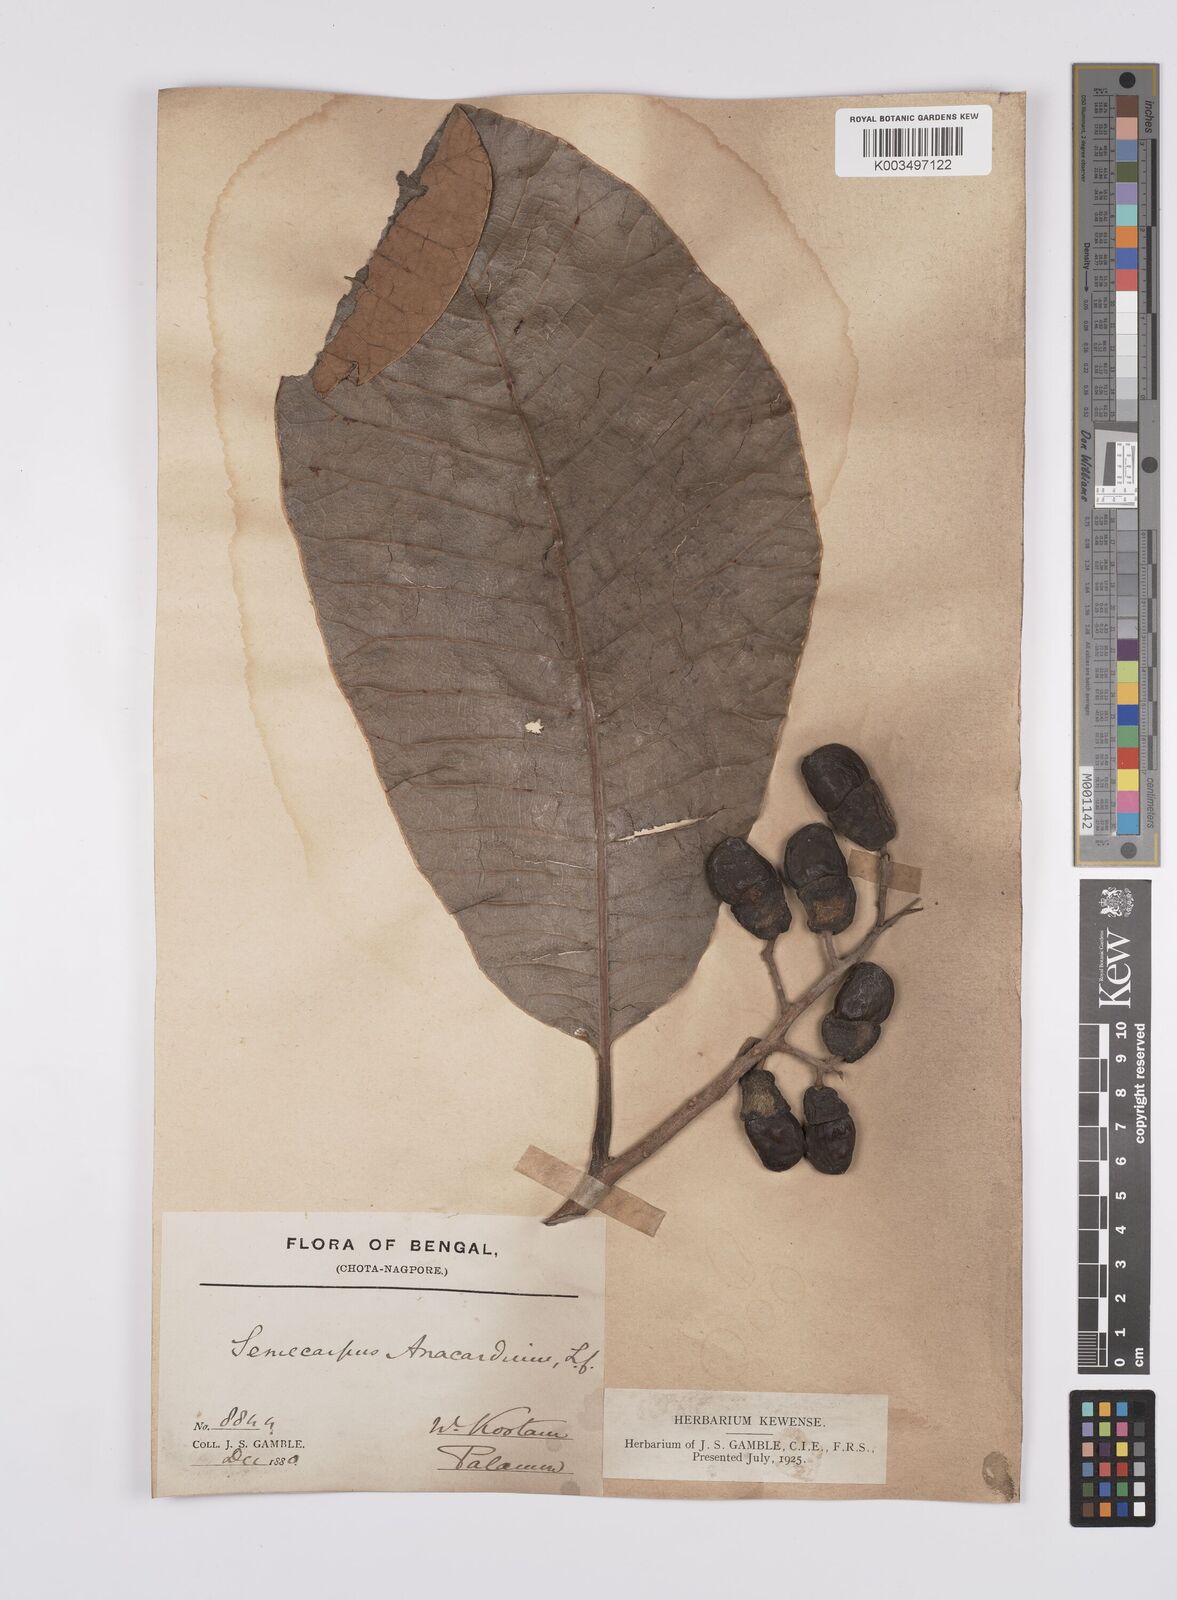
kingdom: Plantae
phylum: Tracheophyta
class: Magnoliopsida
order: Sapindales
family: Anacardiaceae
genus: Semecarpus
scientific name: Semecarpus anacardium
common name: Marking nut-tree
